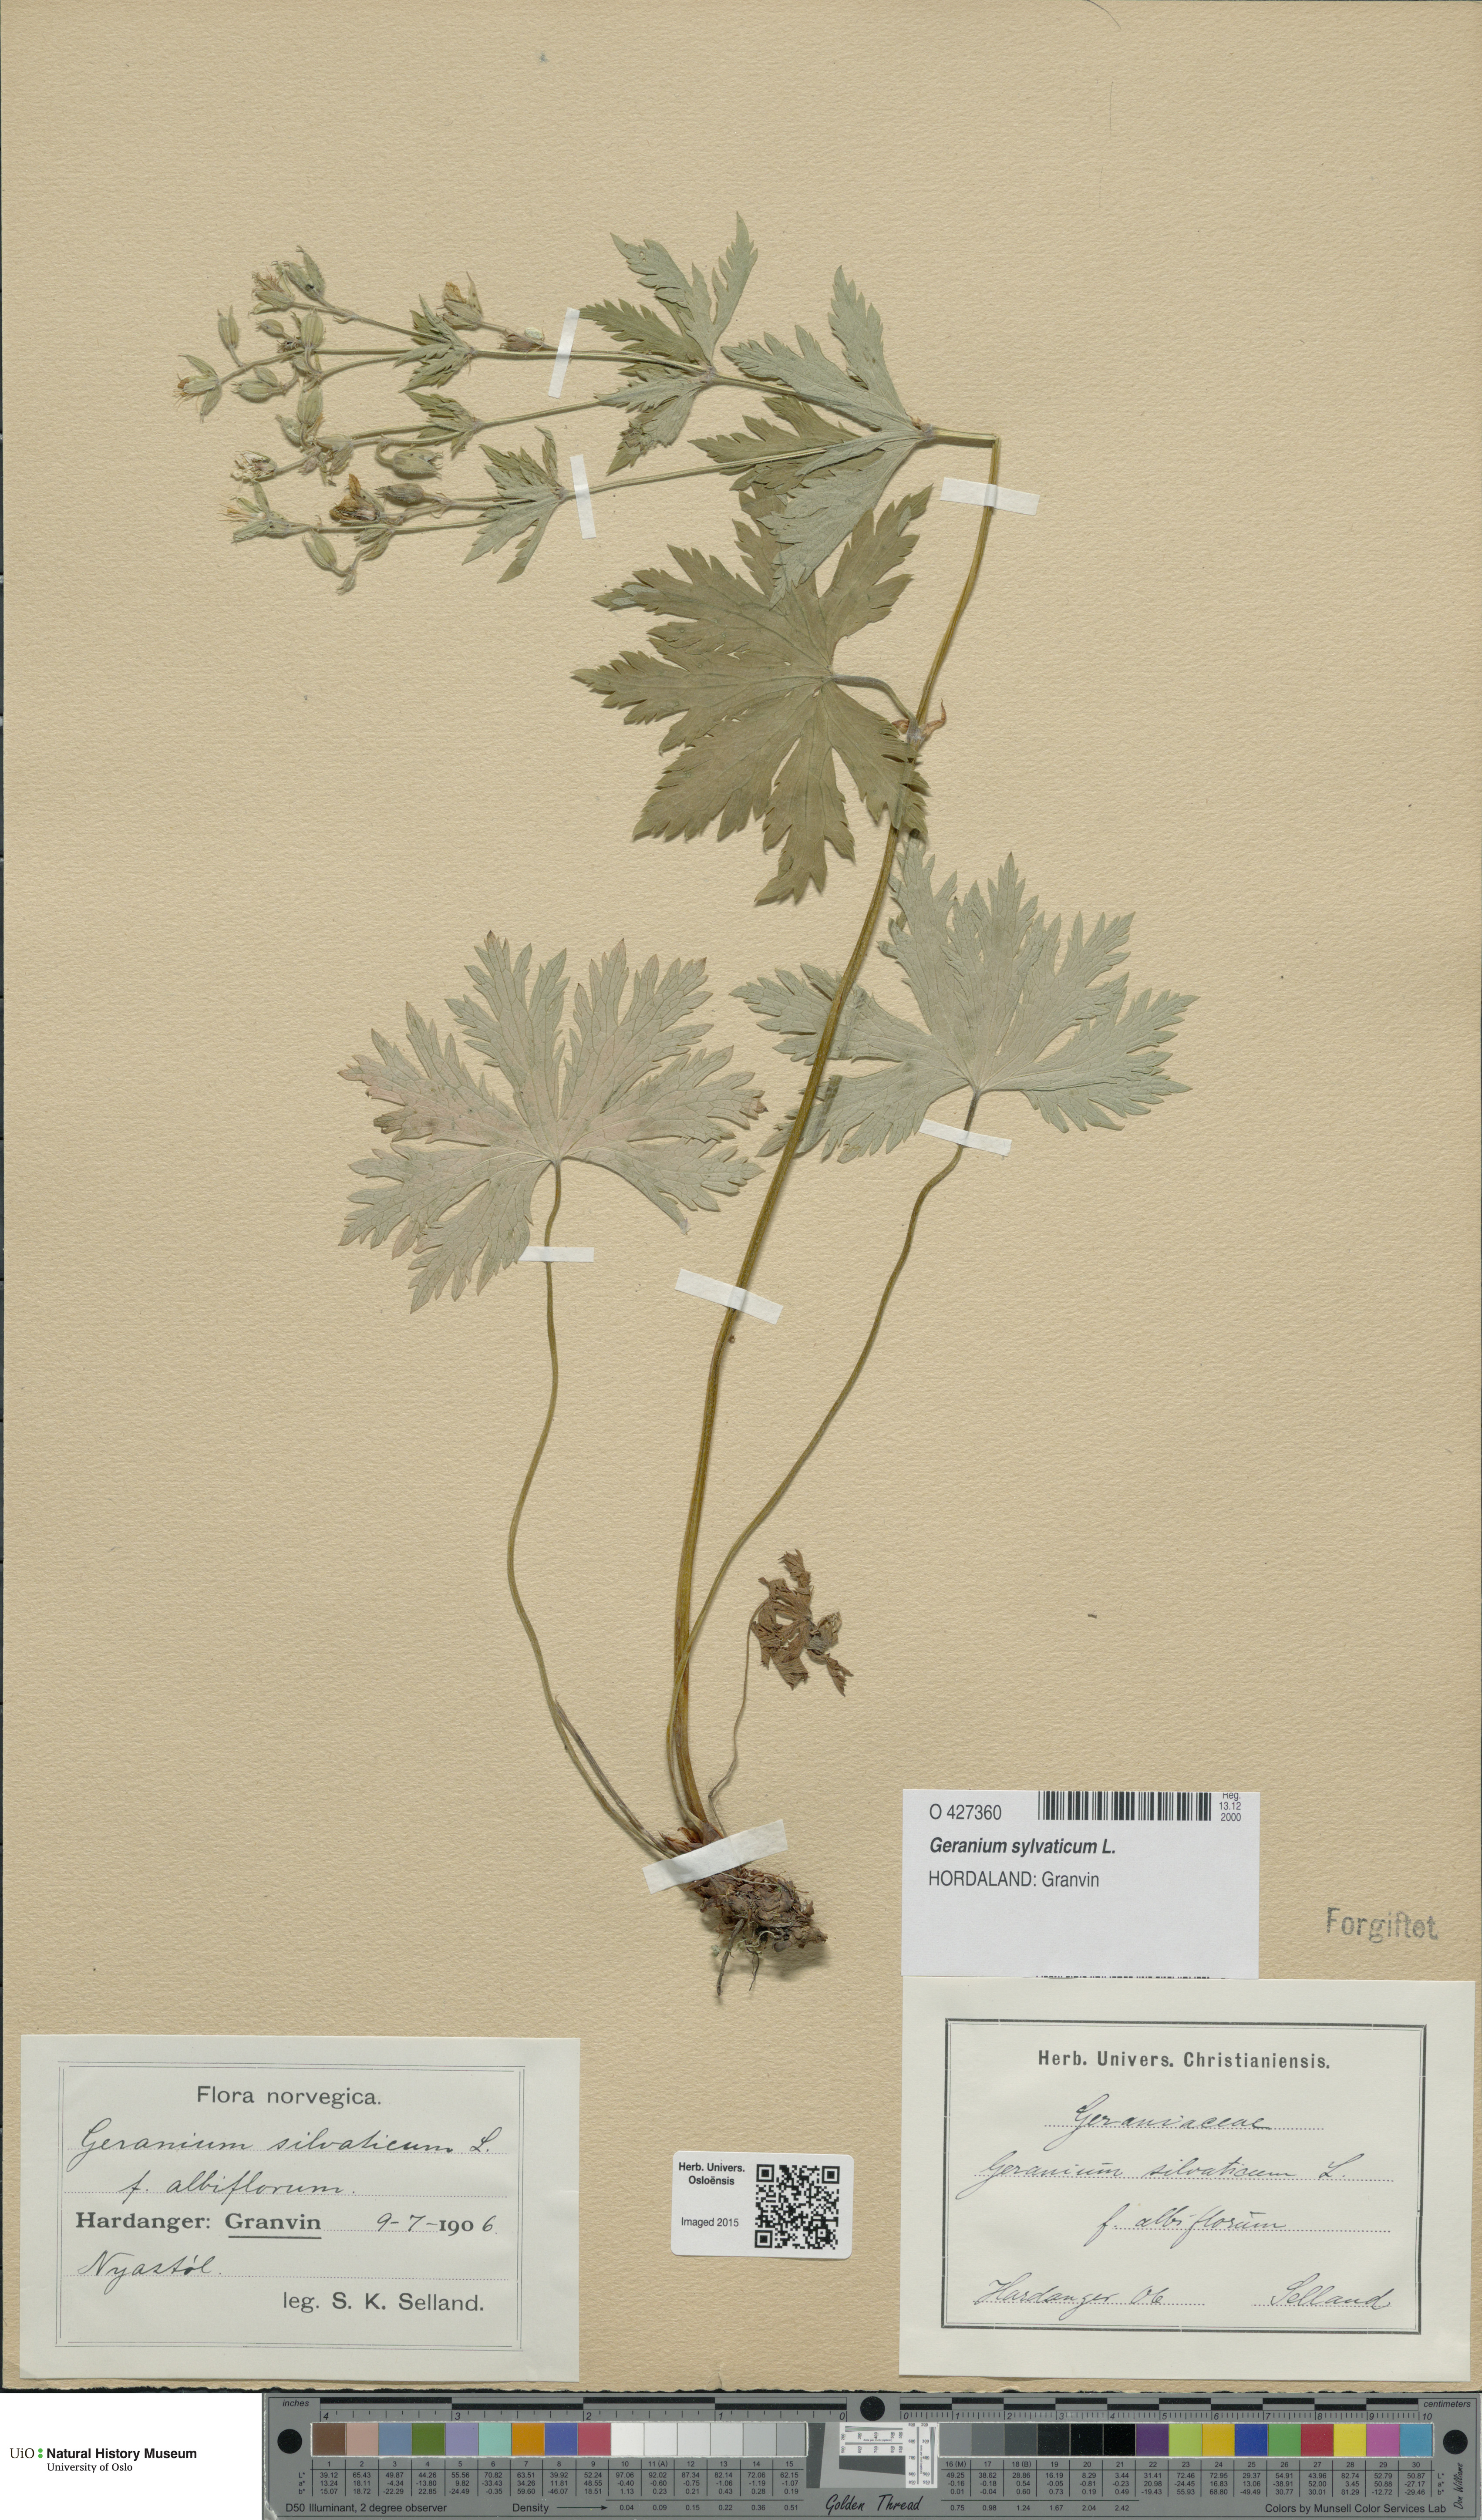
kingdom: Plantae
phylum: Tracheophyta
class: Magnoliopsida
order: Geraniales
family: Geraniaceae
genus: Geranium
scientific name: Geranium sylvaticum
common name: Wood crane's-bill
